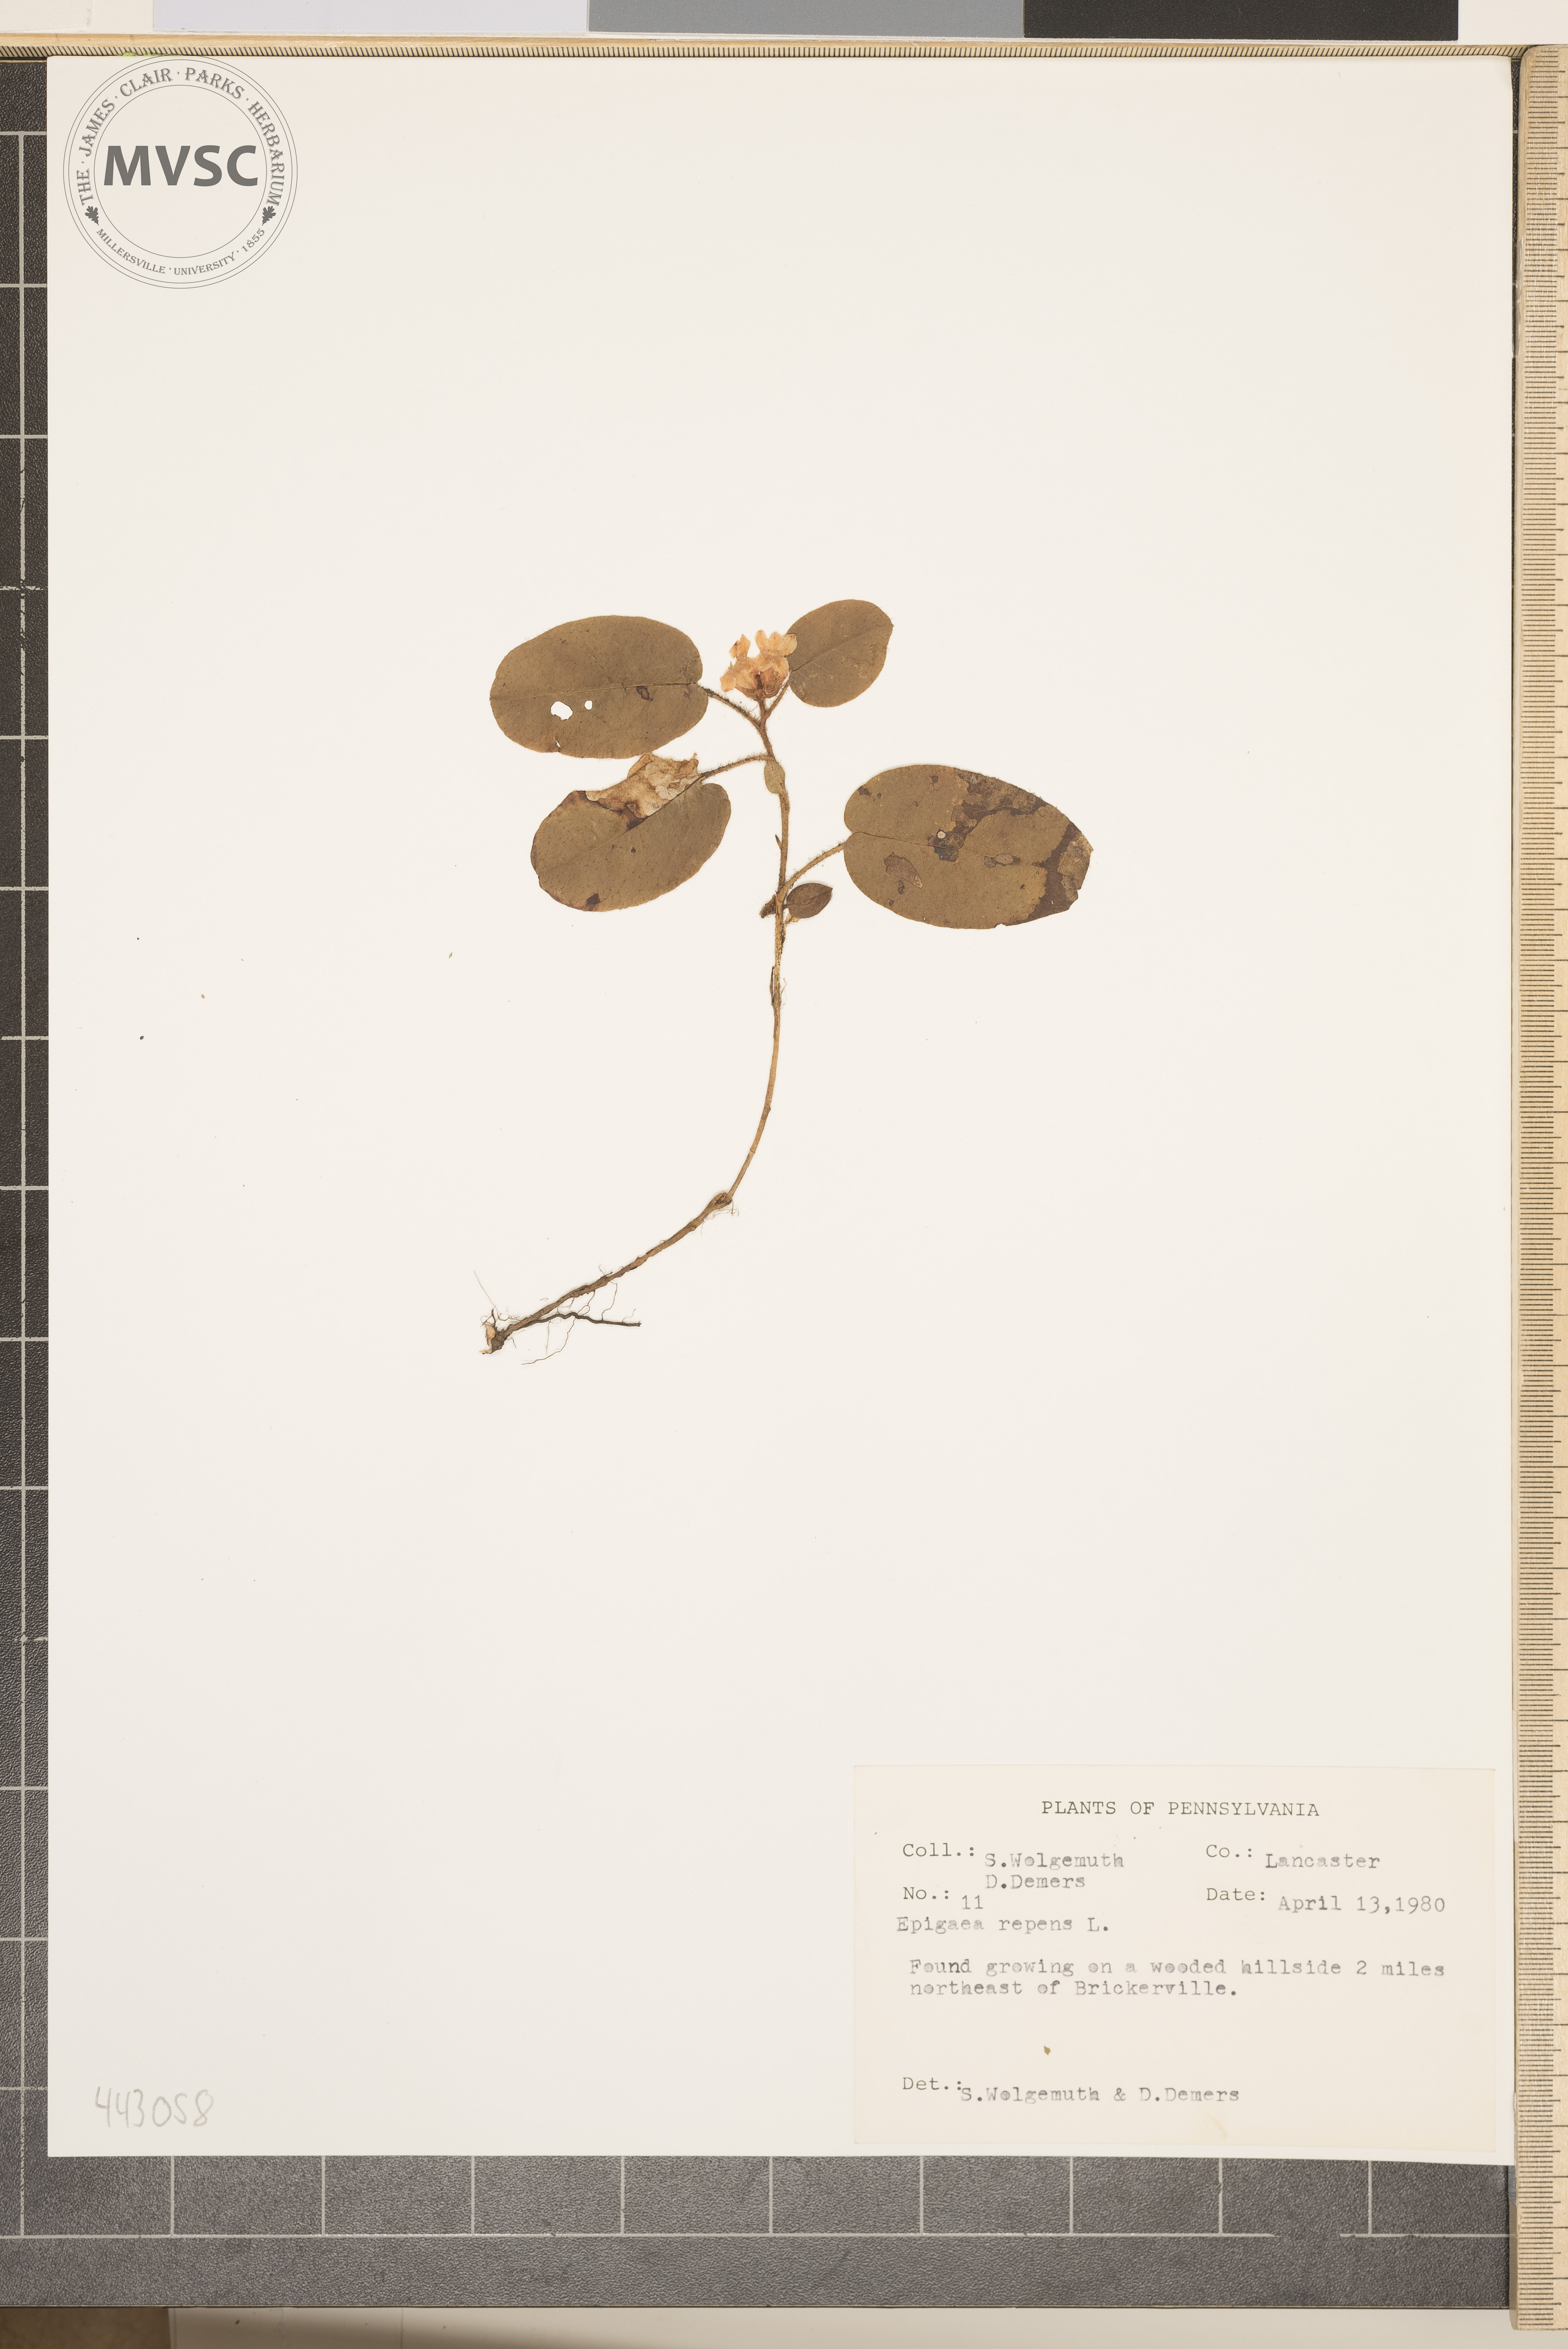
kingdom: Plantae
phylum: Tracheophyta
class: Magnoliopsida
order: Ericales
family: Ericaceae
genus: Epigaea
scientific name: Epigaea repens
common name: Gravelroot
